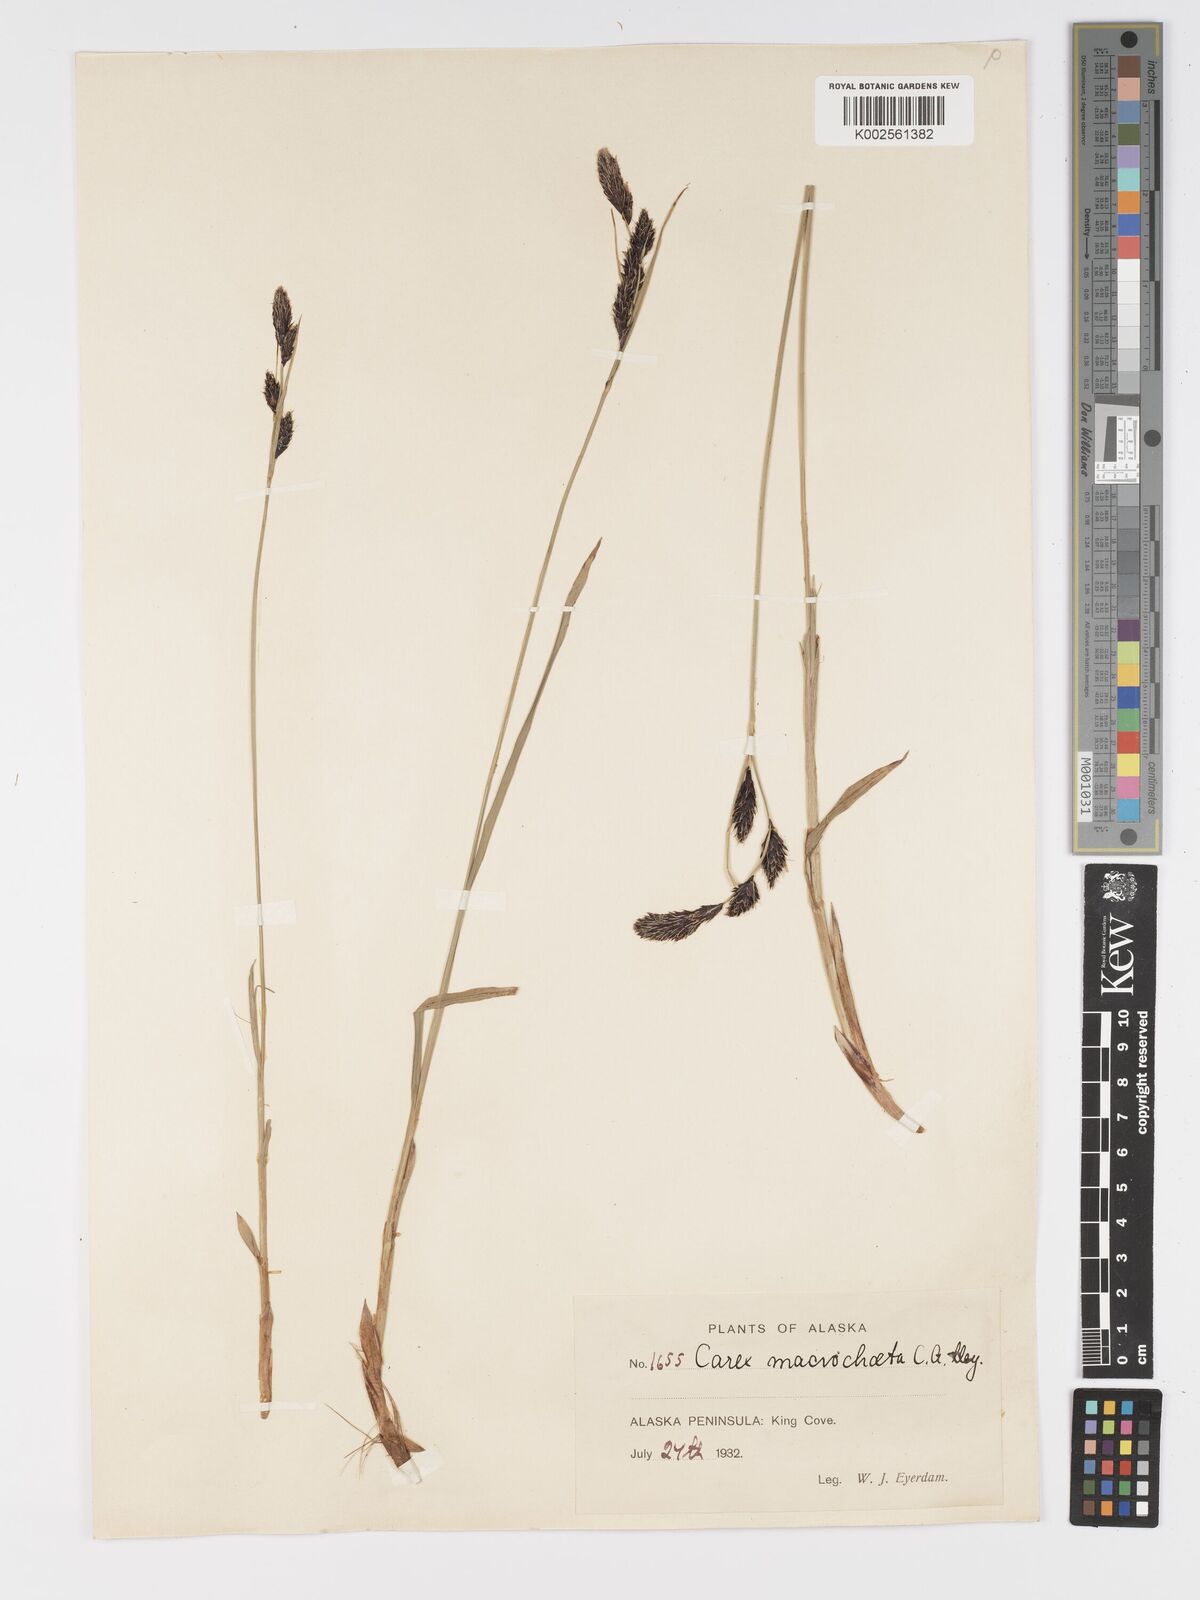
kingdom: Plantae
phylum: Tracheophyta
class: Liliopsida
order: Poales
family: Cyperaceae
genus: Carex
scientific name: Carex macrochaeta
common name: Alaska large awn sedge
